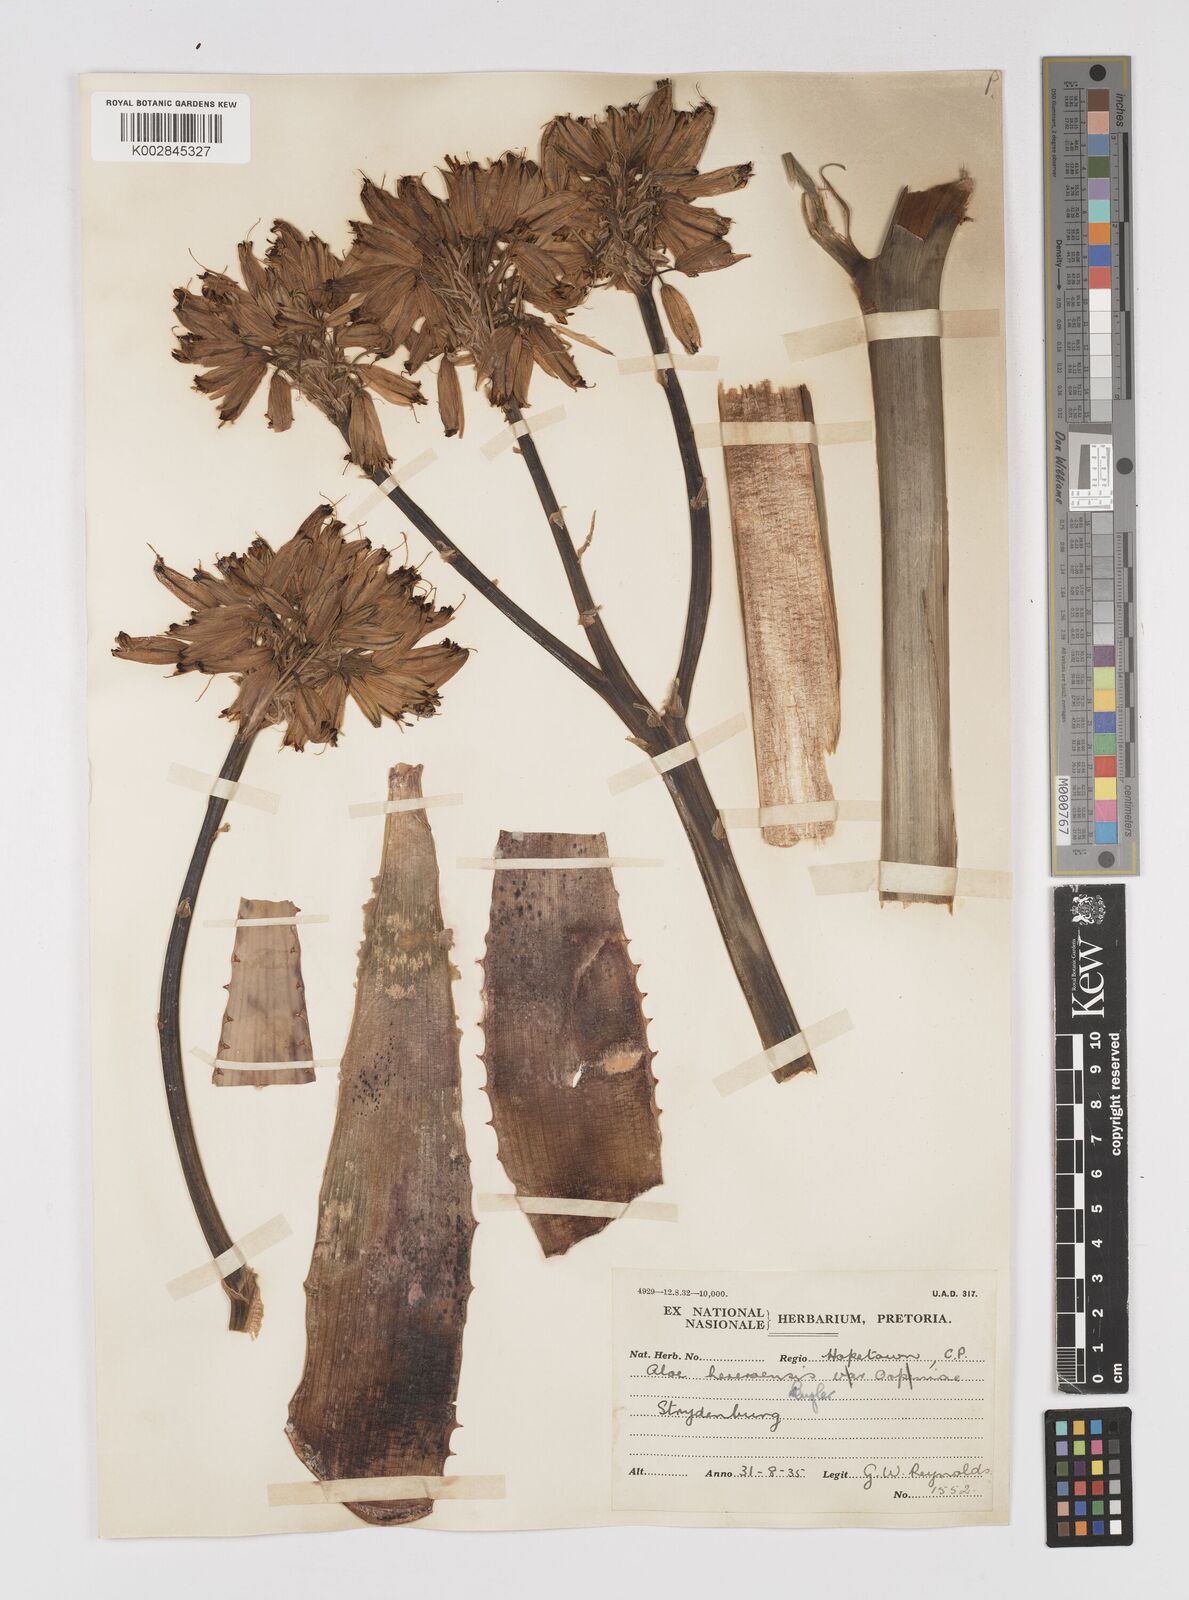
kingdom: Plantae
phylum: Tracheophyta
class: Liliopsida
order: Asparagales
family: Asphodelaceae
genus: Aloe
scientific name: Aloe hereroensis
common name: Herero aloe
